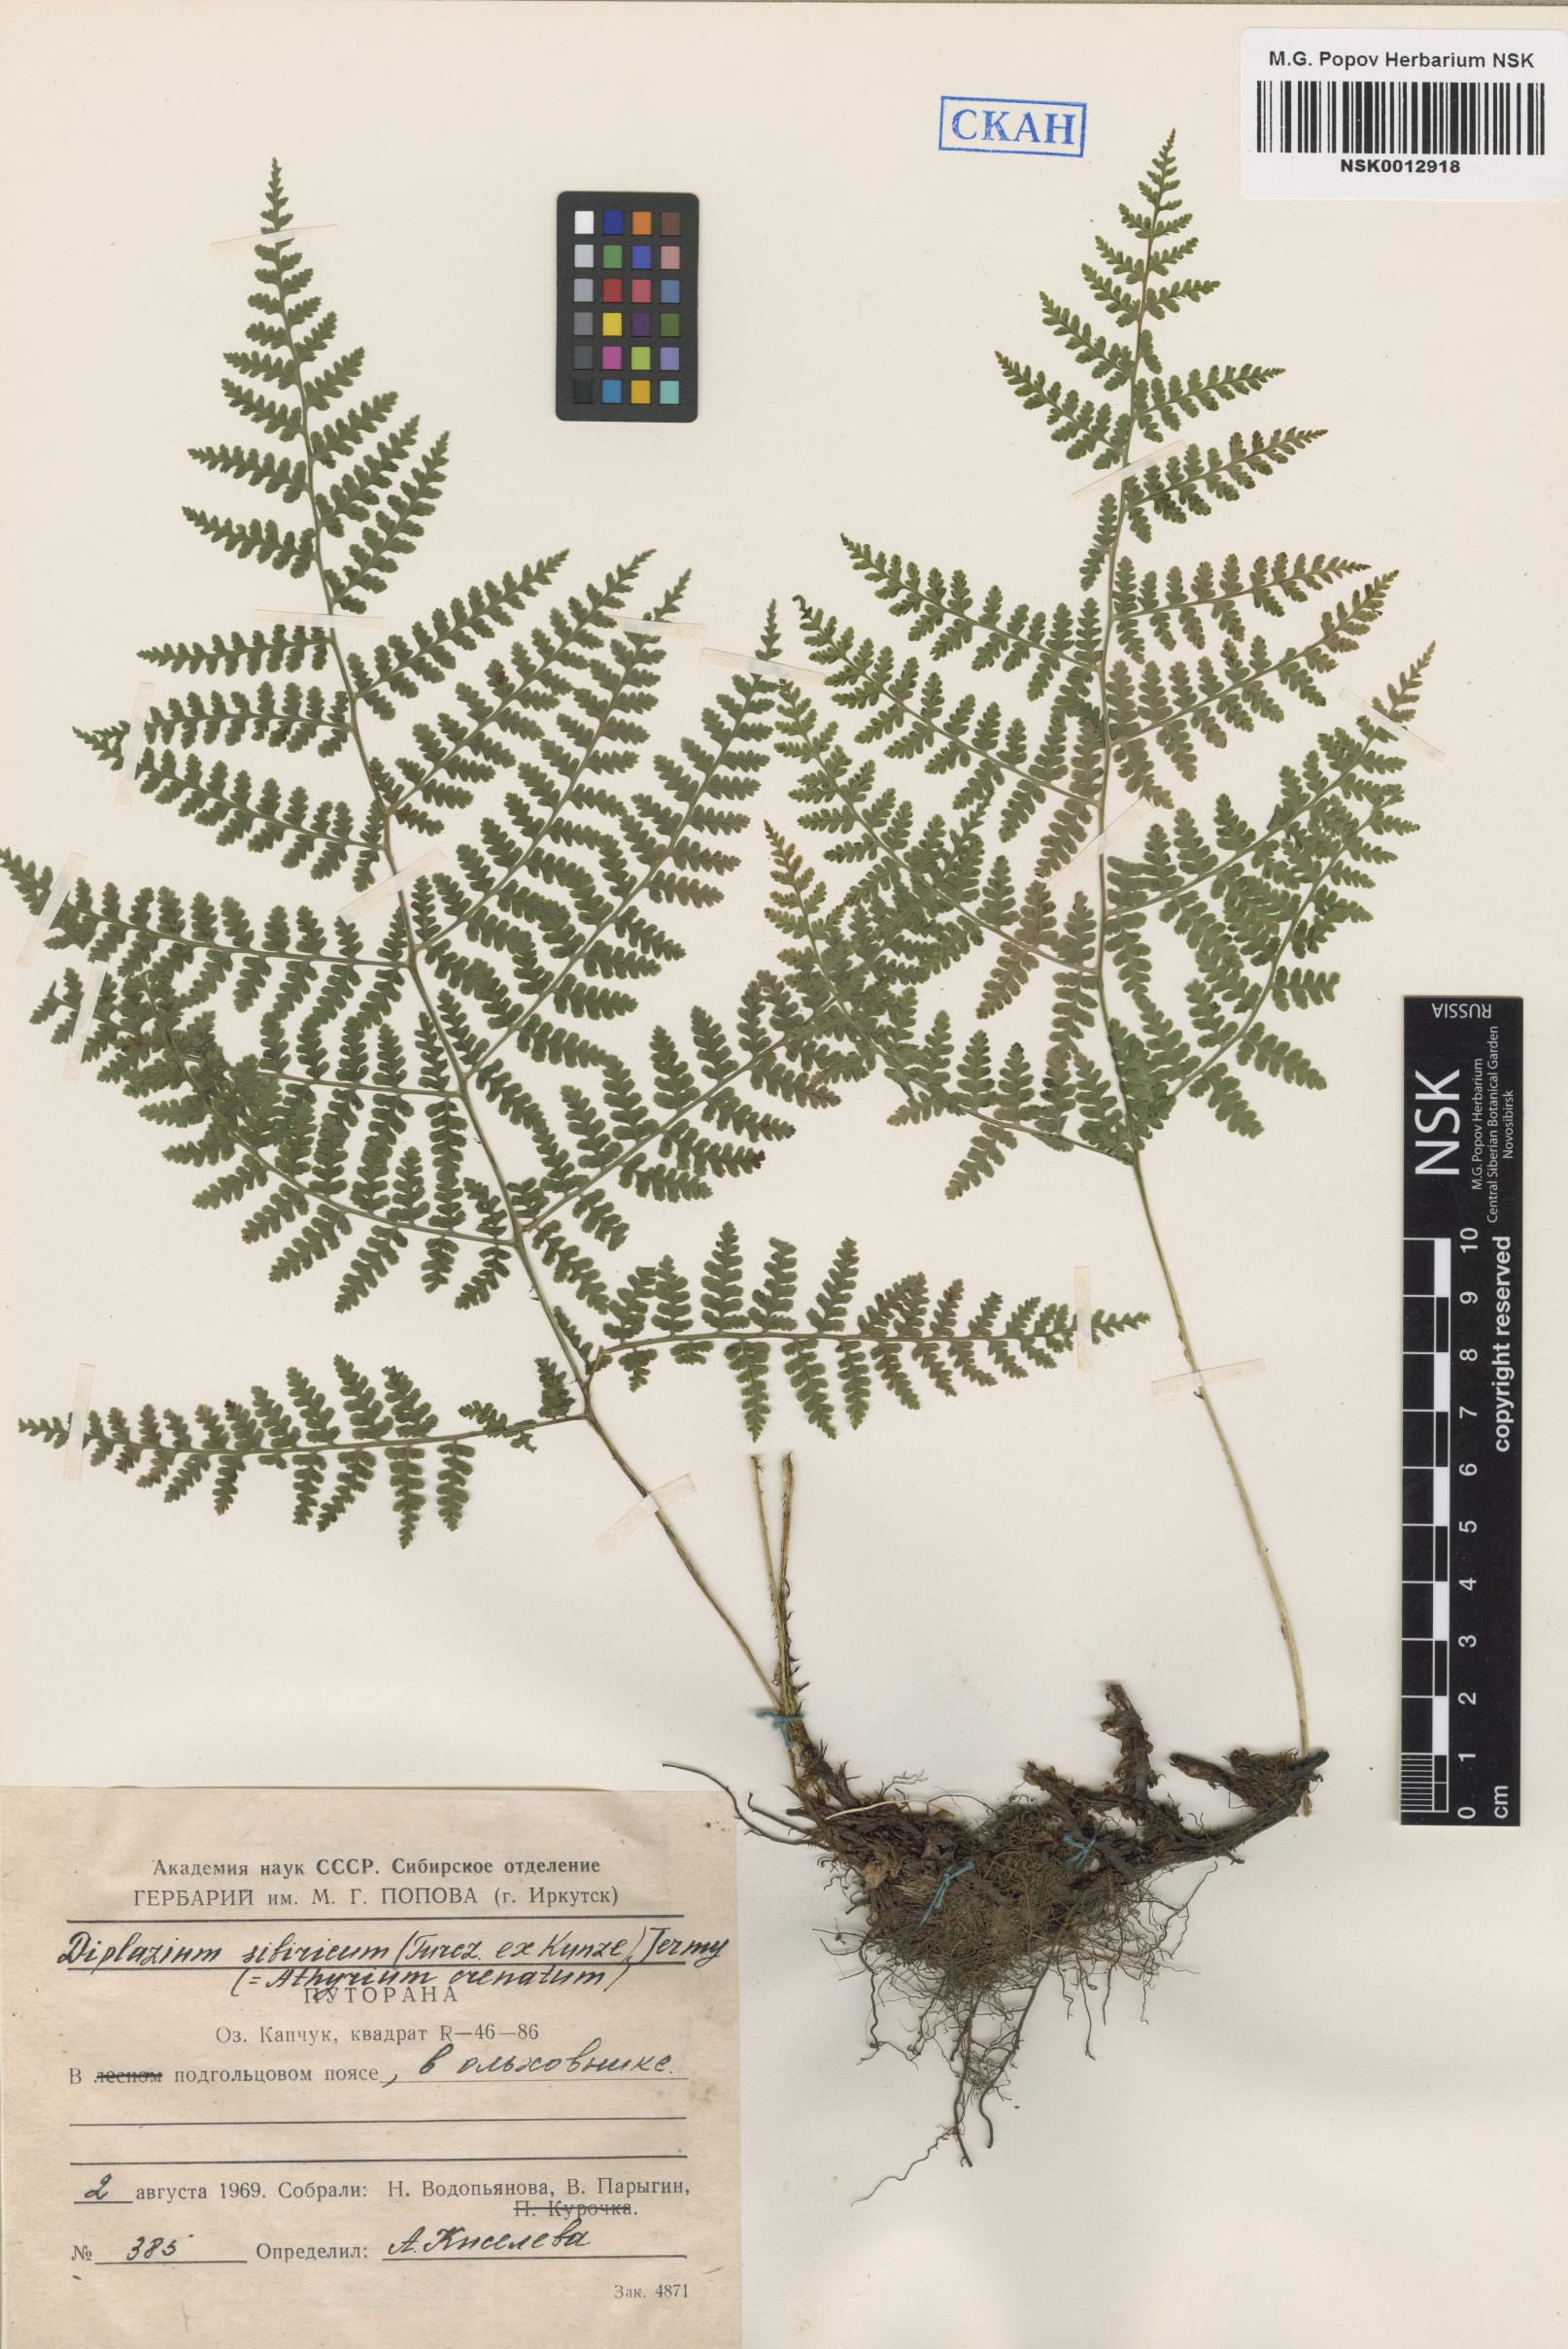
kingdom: Plantae
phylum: Tracheophyta
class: Polypodiopsida
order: Polypodiales
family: Athyriaceae
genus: Diplazium
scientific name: Diplazium sibiricum
